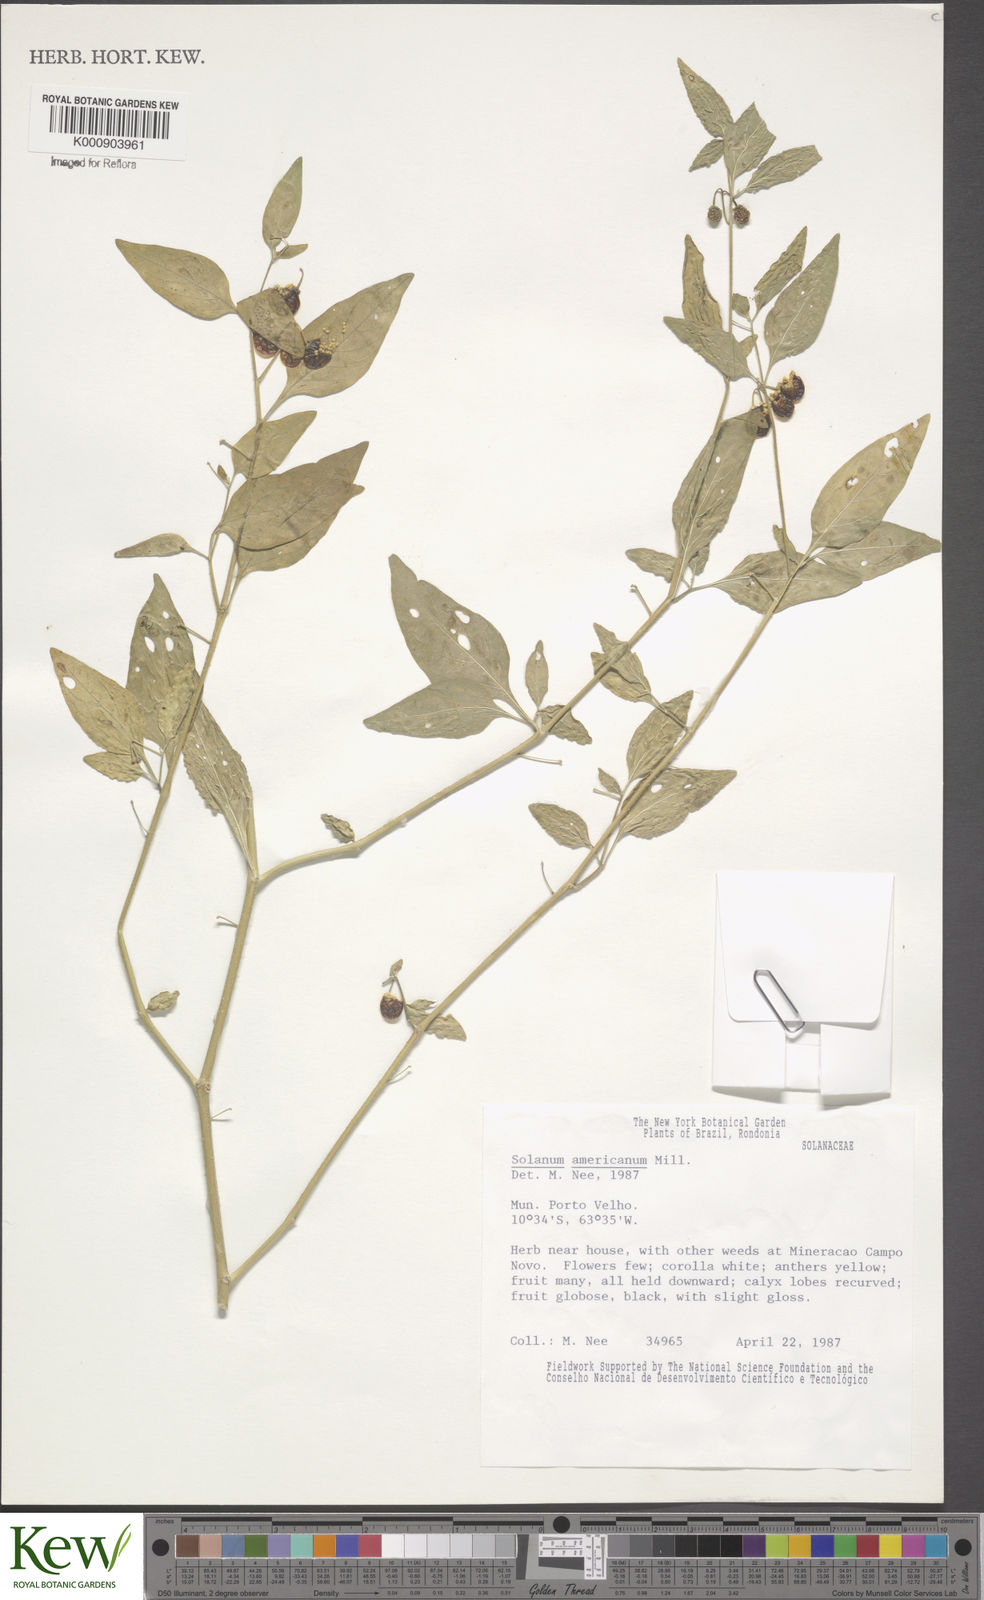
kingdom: Plantae
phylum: Tracheophyta
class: Magnoliopsida
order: Solanales
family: Solanaceae
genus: Solanum
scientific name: Solanum americanum
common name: American black nightshade
